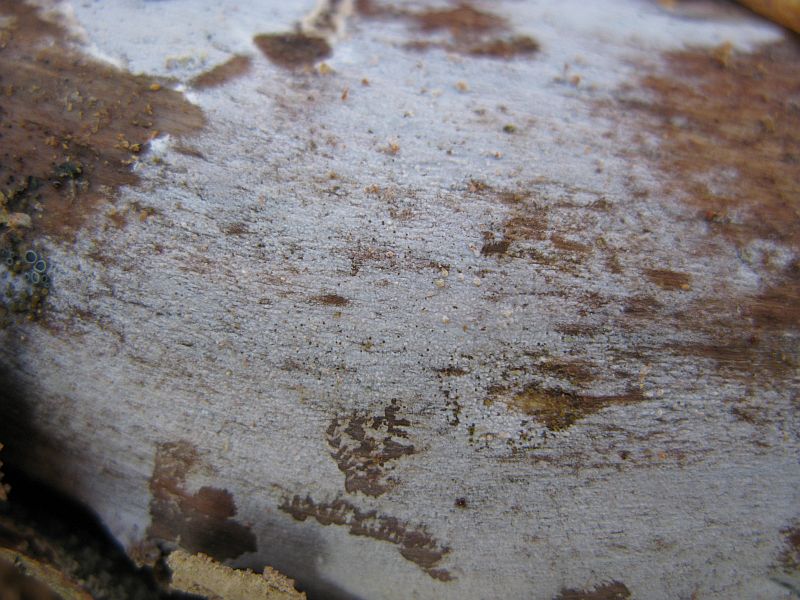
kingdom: Fungi
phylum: Basidiomycota
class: Agaricomycetes
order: Hymenochaetales
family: Rickenellaceae
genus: Peniophorella
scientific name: Peniophorella praetermissa
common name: almindelig kalkskind
